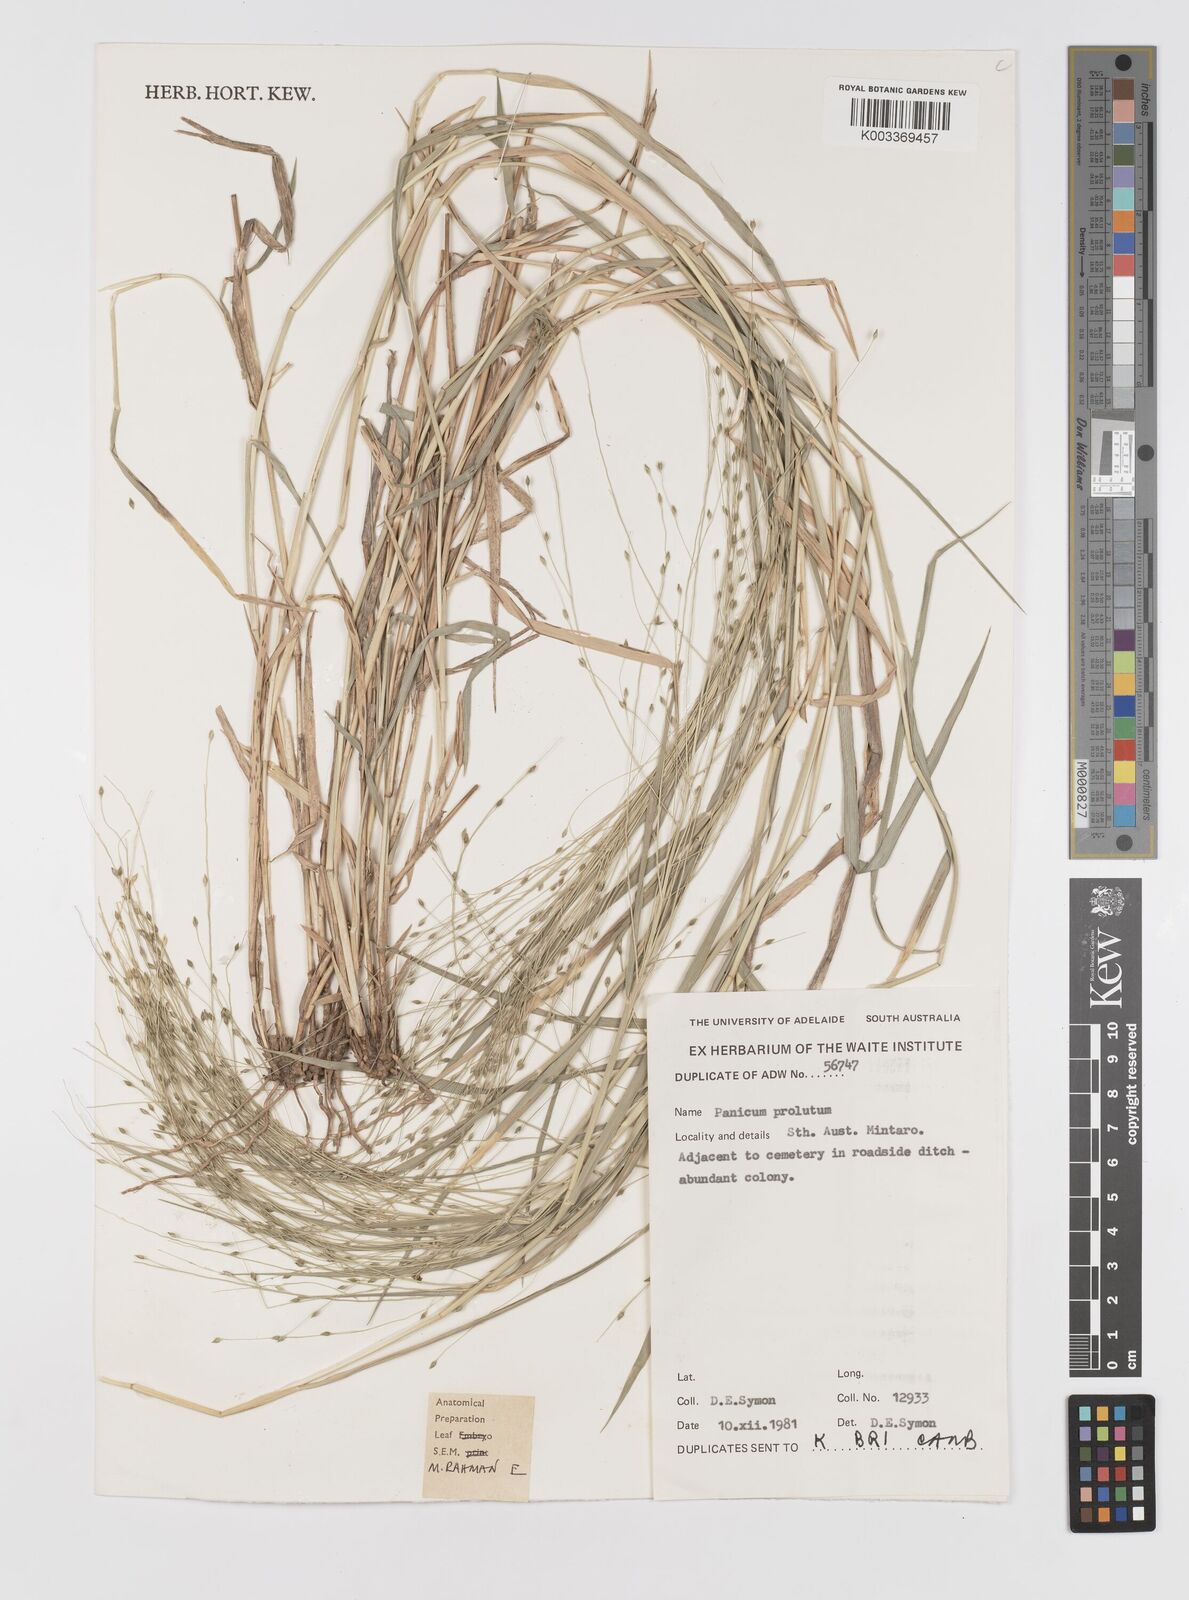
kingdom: Plantae
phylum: Tracheophyta
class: Liliopsida
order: Poales
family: Poaceae
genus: Walwhalleya
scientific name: Walwhalleya proluta
